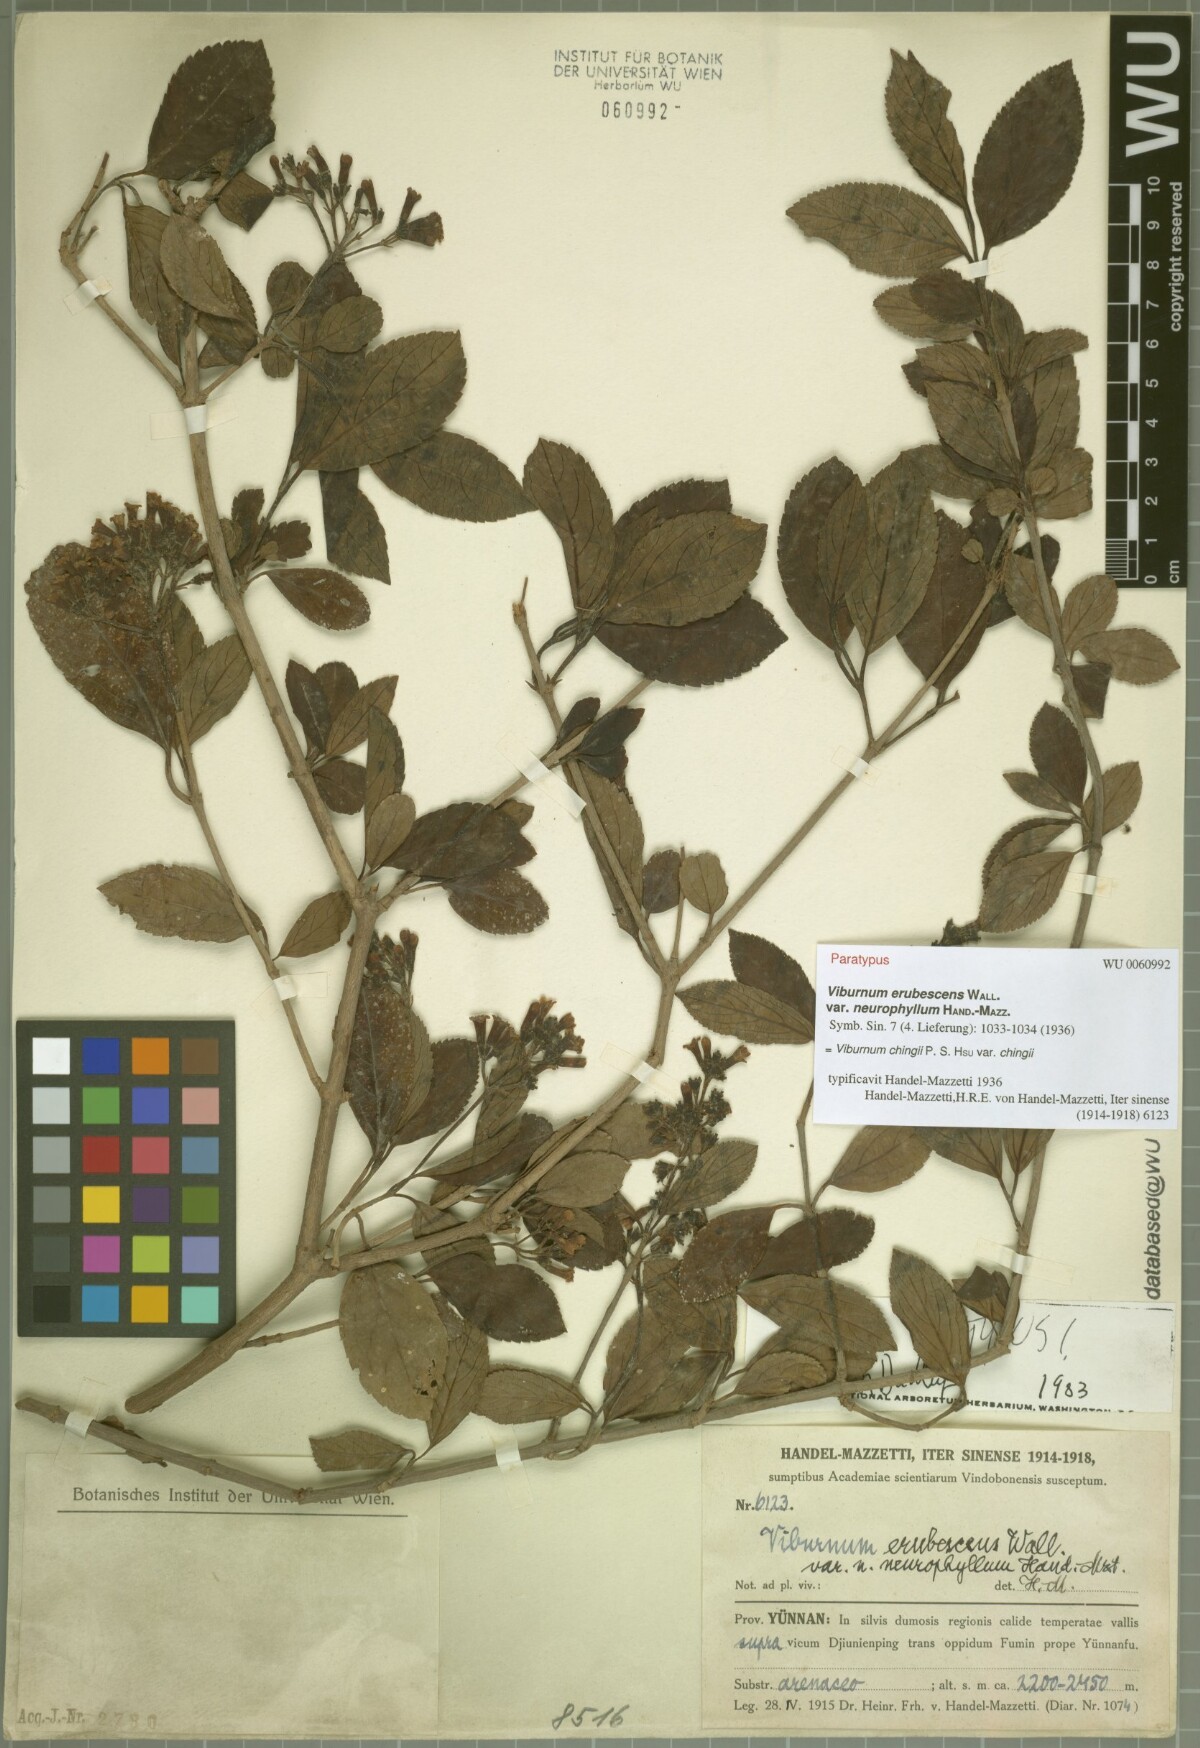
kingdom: Plantae
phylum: Tracheophyta
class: Magnoliopsida
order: Dipsacales
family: Viburnaceae
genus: Viburnum
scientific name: Viburnum chingii
